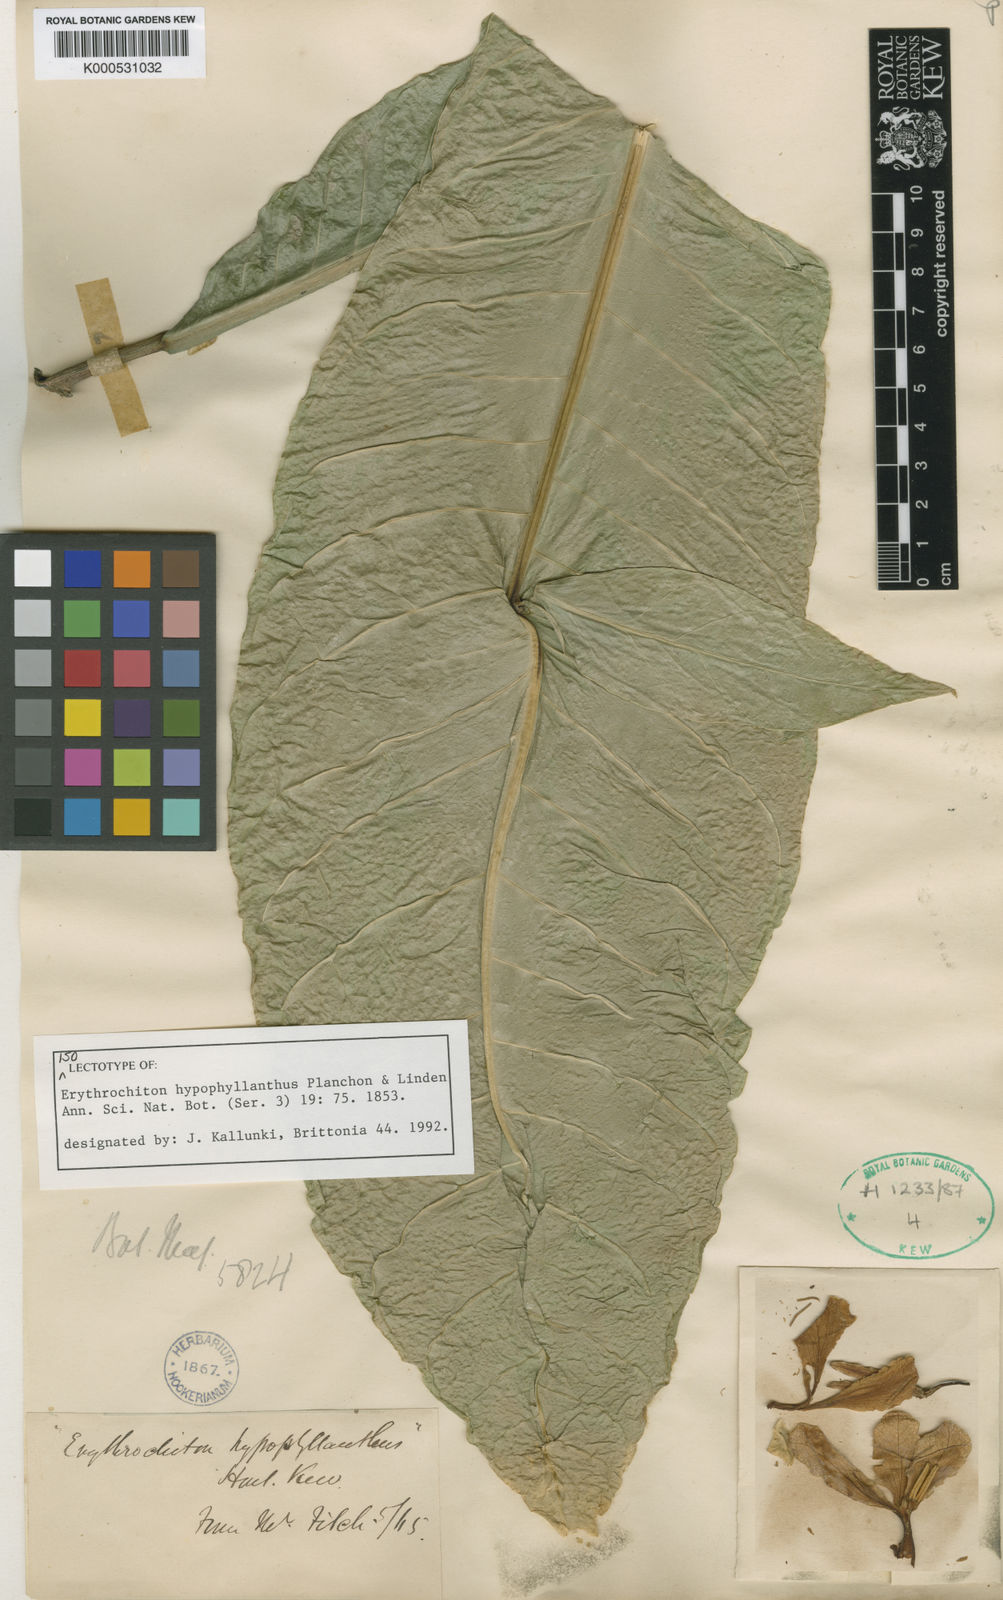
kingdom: Plantae
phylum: Tracheophyta
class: Magnoliopsida
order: Sapindales
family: Rutaceae
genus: Erythrochiton
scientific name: Erythrochiton hypophyllanthus
